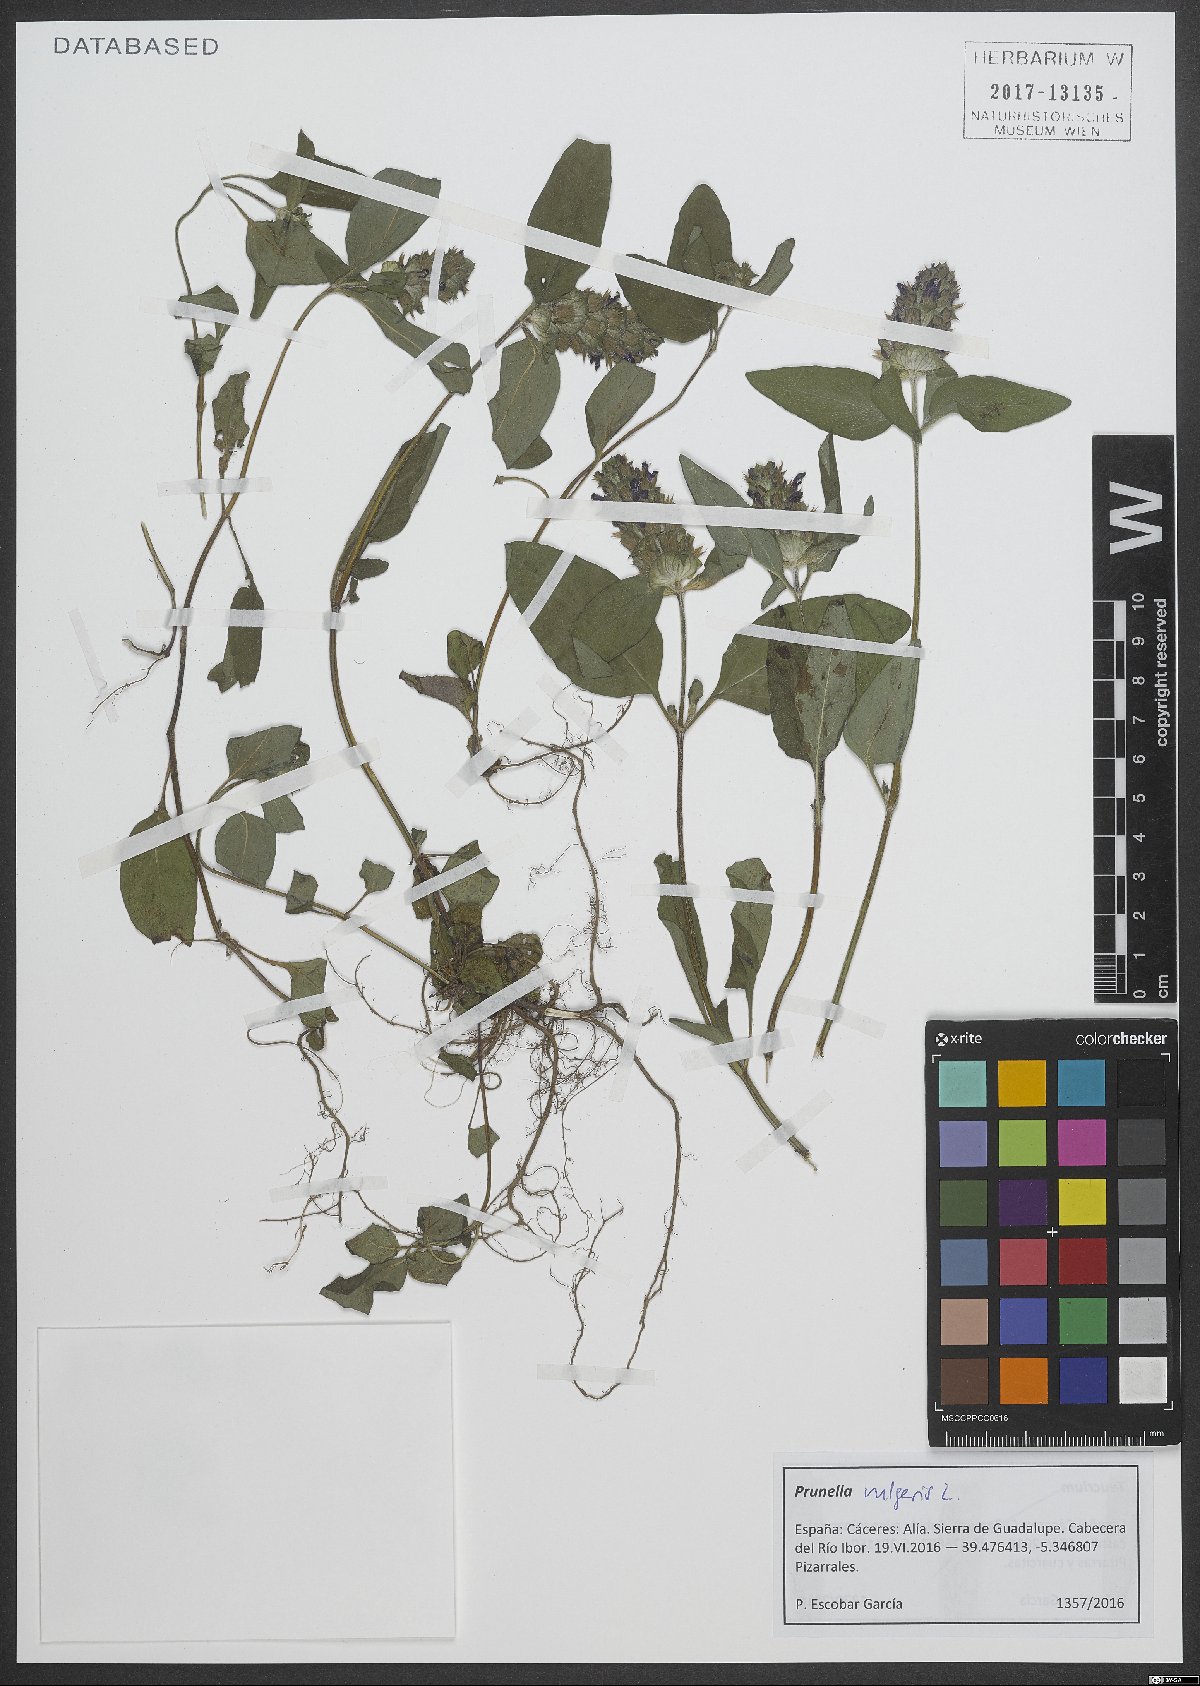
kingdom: Plantae
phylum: Tracheophyta
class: Magnoliopsida
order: Lamiales
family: Lamiaceae
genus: Prunella
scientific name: Prunella vulgaris
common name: Heal-all
